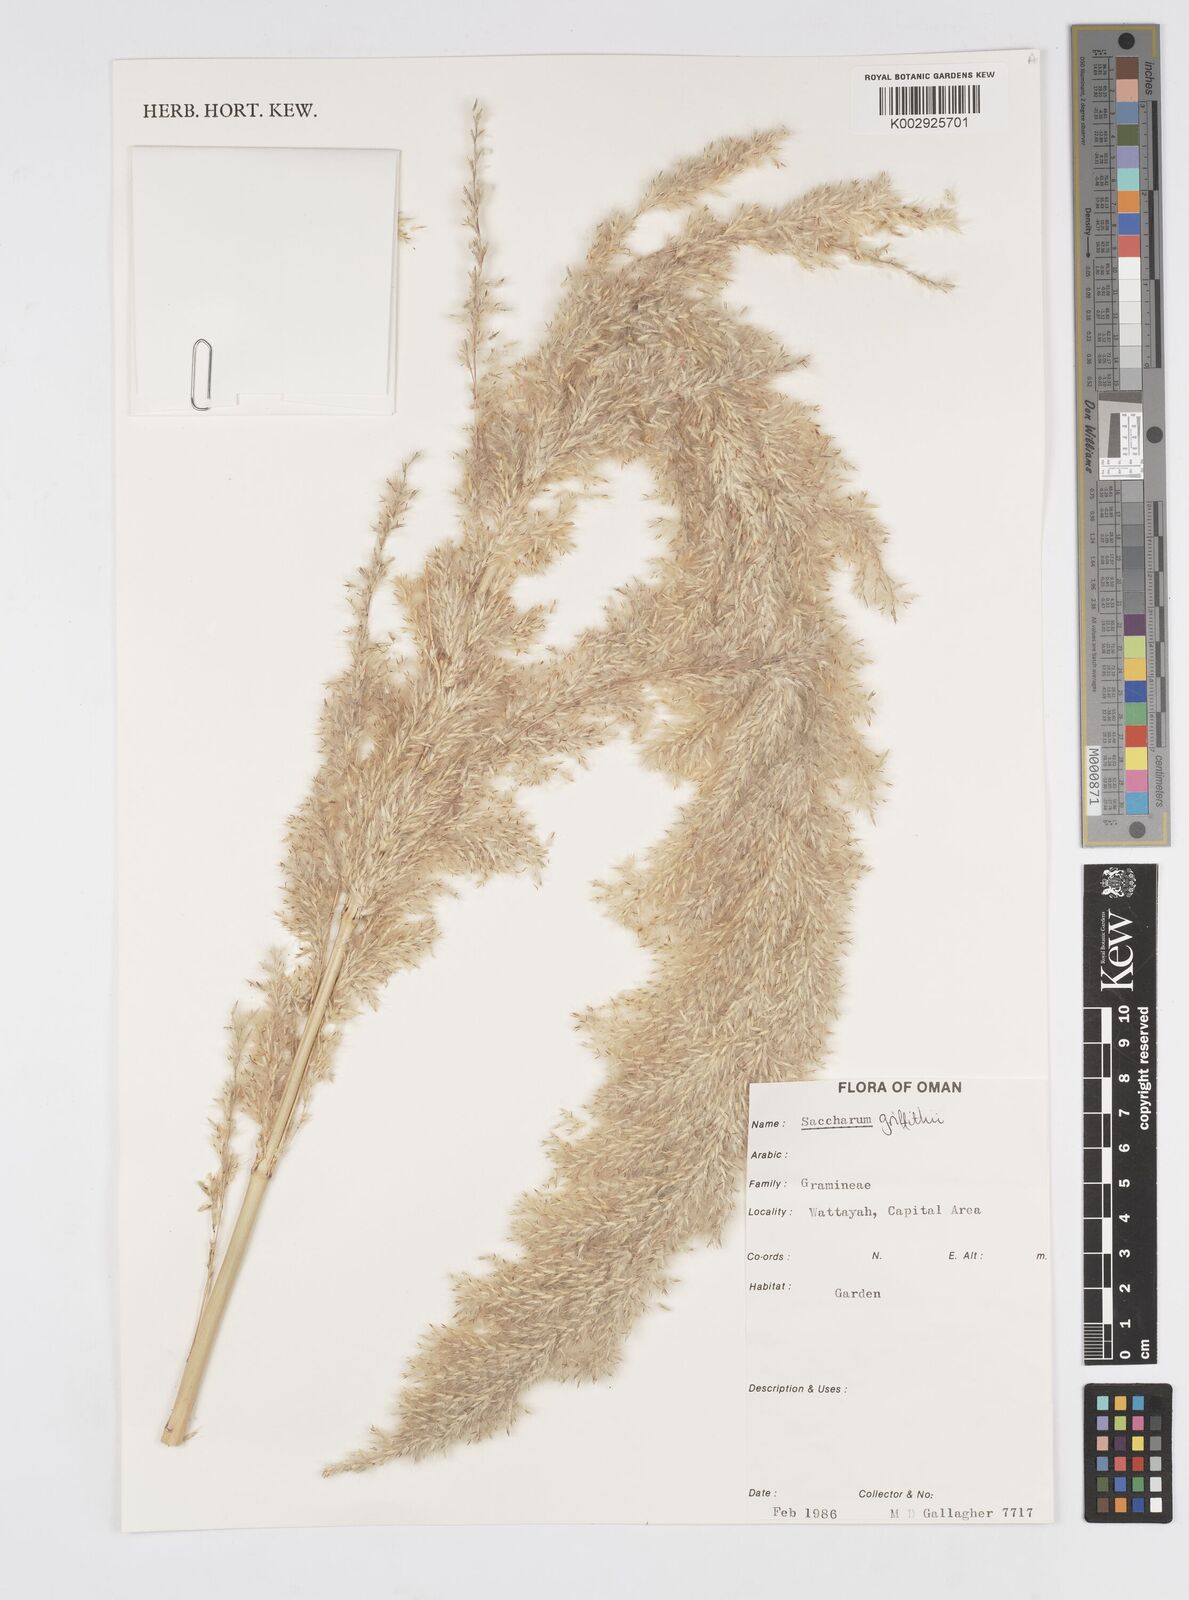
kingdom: Plantae
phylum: Tracheophyta
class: Liliopsida
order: Poales
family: Poaceae
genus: Saccharum
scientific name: Saccharum griffithii
